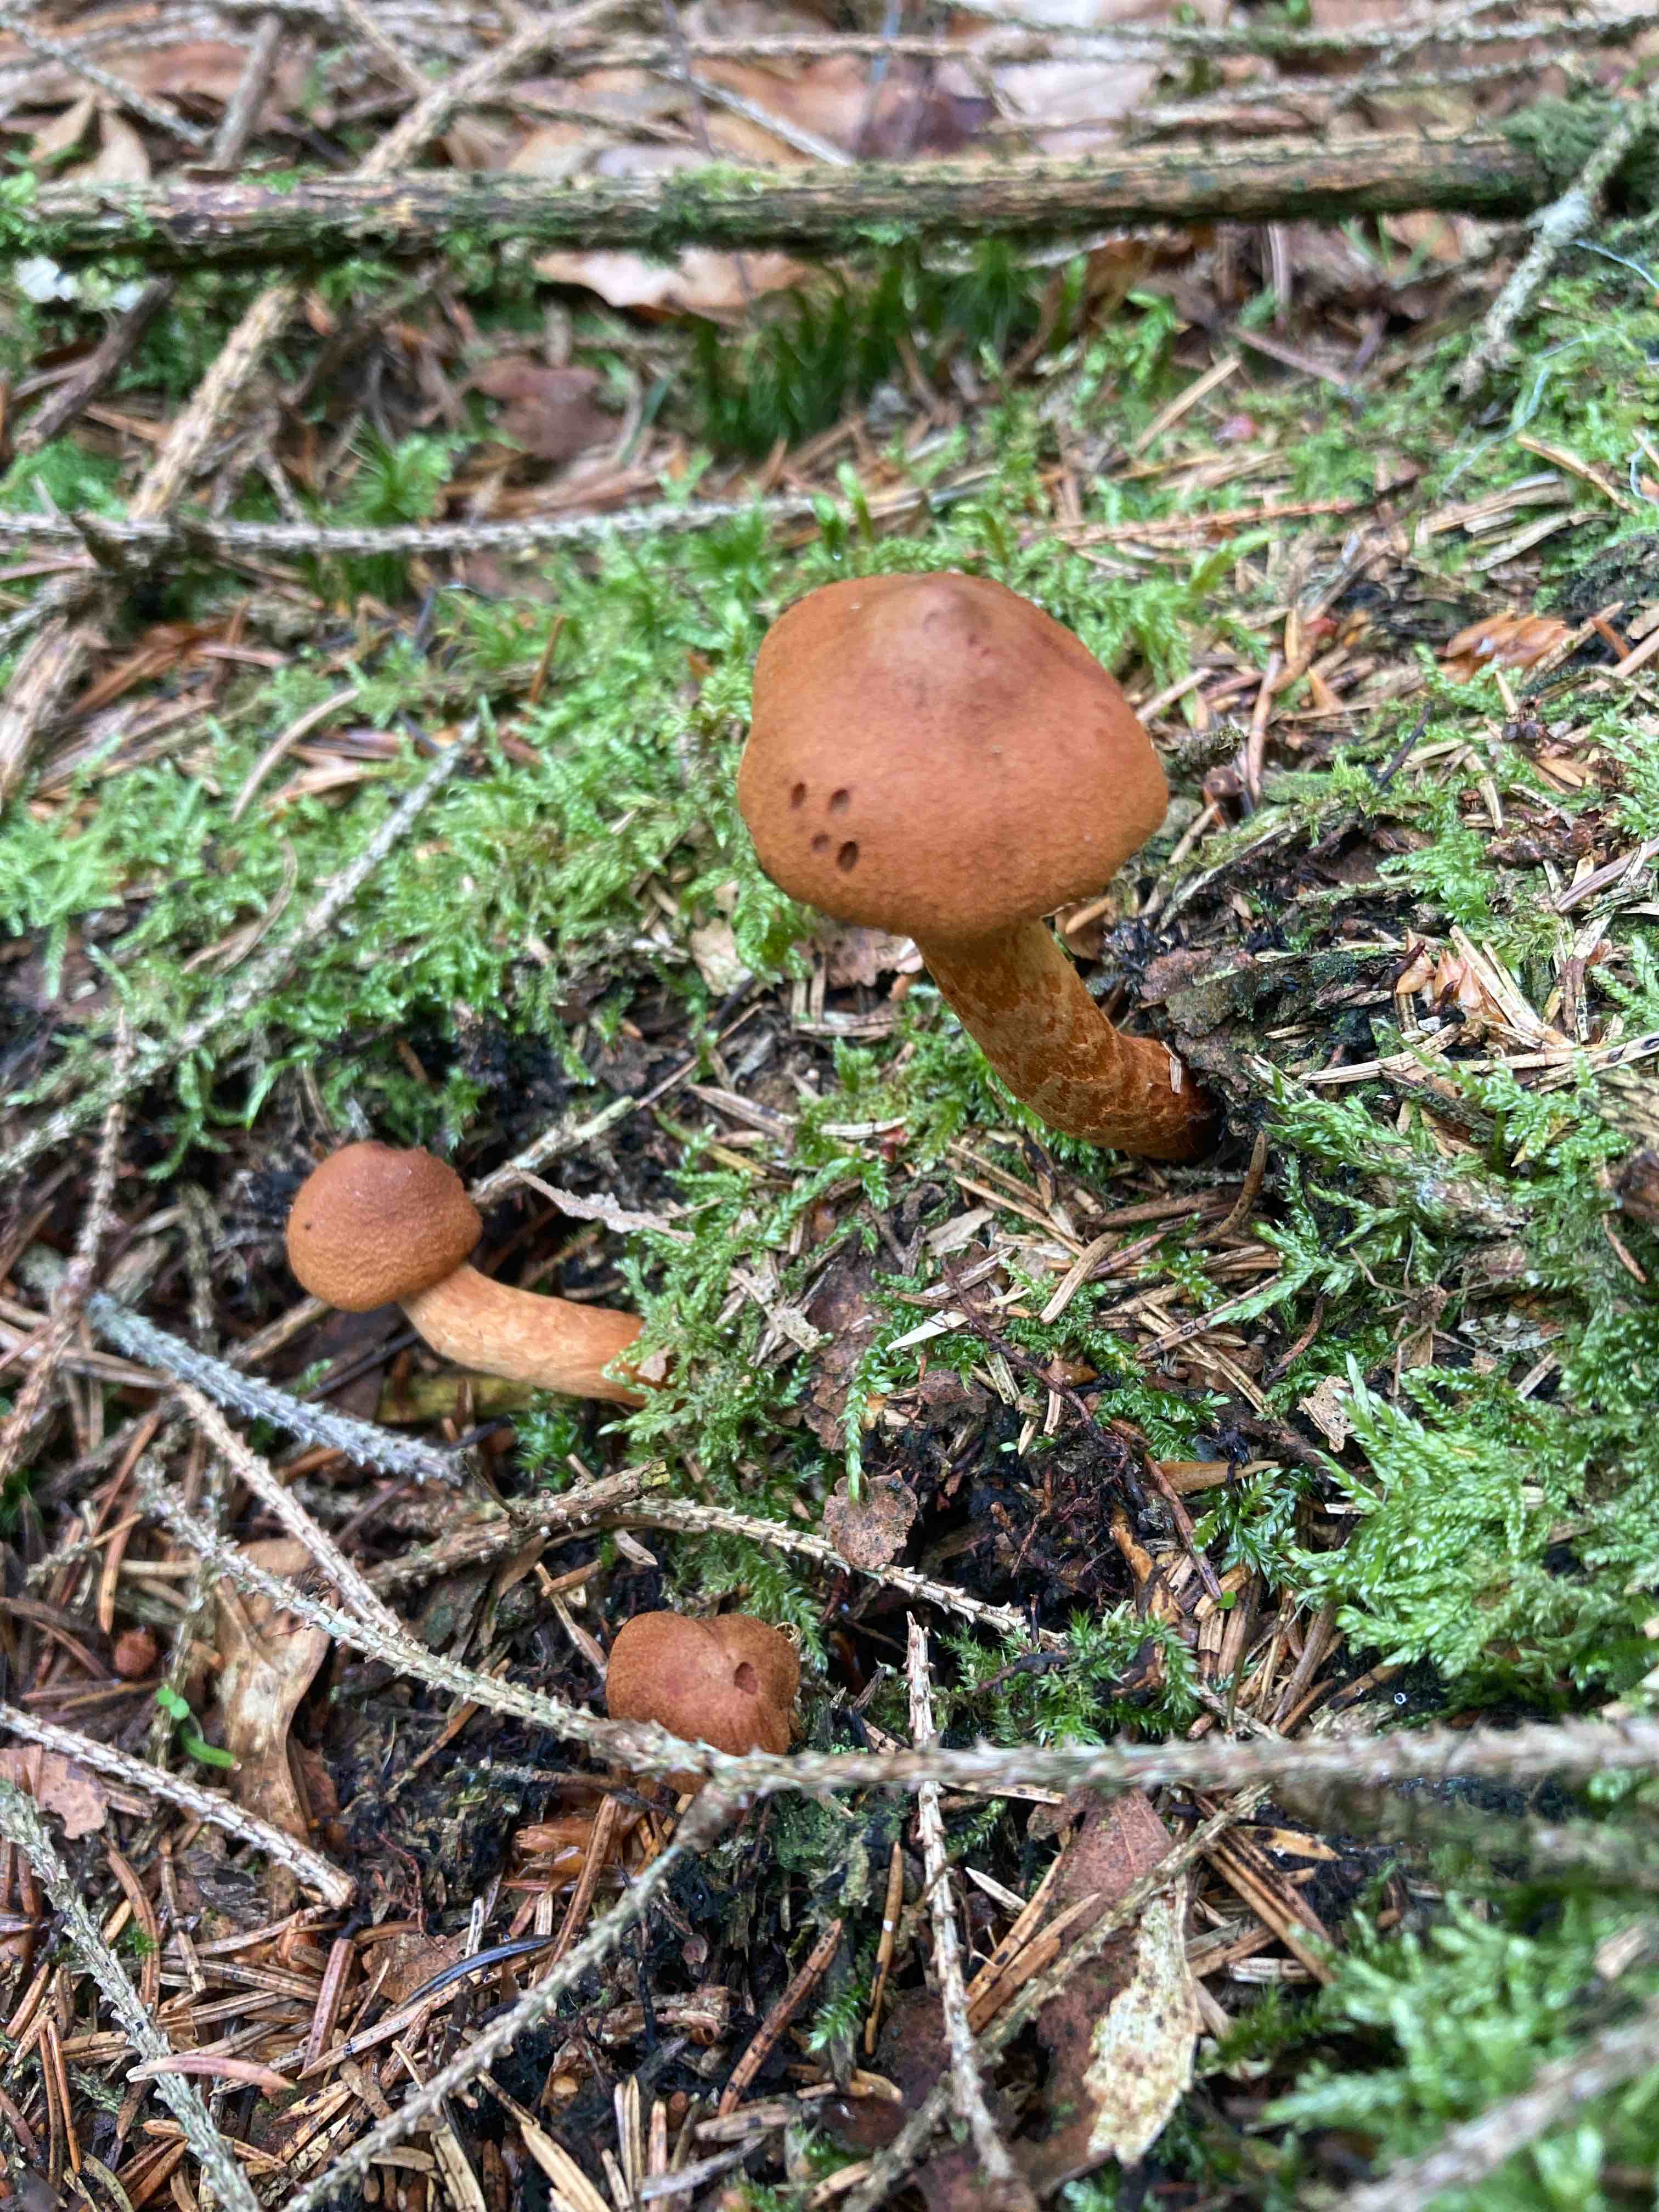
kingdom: Fungi
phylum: Basidiomycota
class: Agaricomycetes
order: Agaricales
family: Cortinariaceae
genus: Cortinarius
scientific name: Cortinarius rubellus
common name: puklet gift-slørhat
